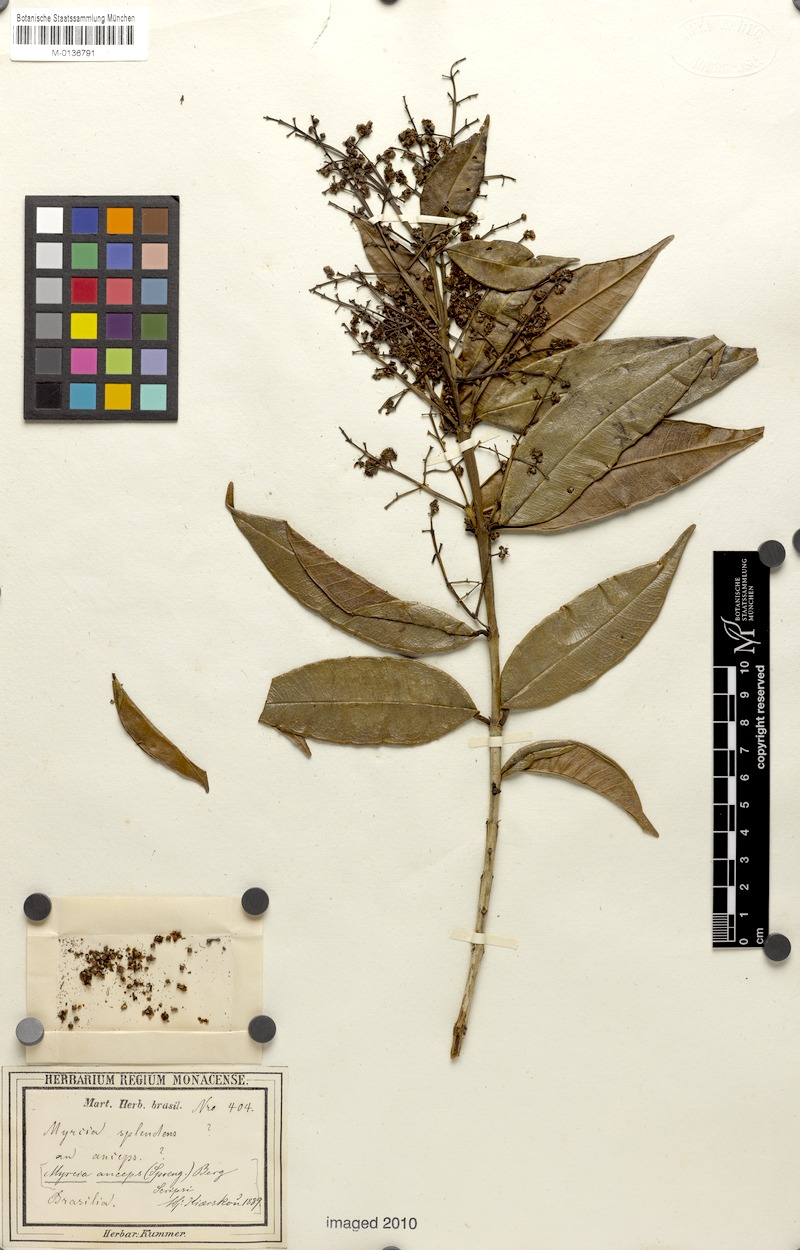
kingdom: Plantae
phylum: Tracheophyta
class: Magnoliopsida
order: Myrtales
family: Myrtaceae
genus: Myrcia
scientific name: Myrcia anceps
